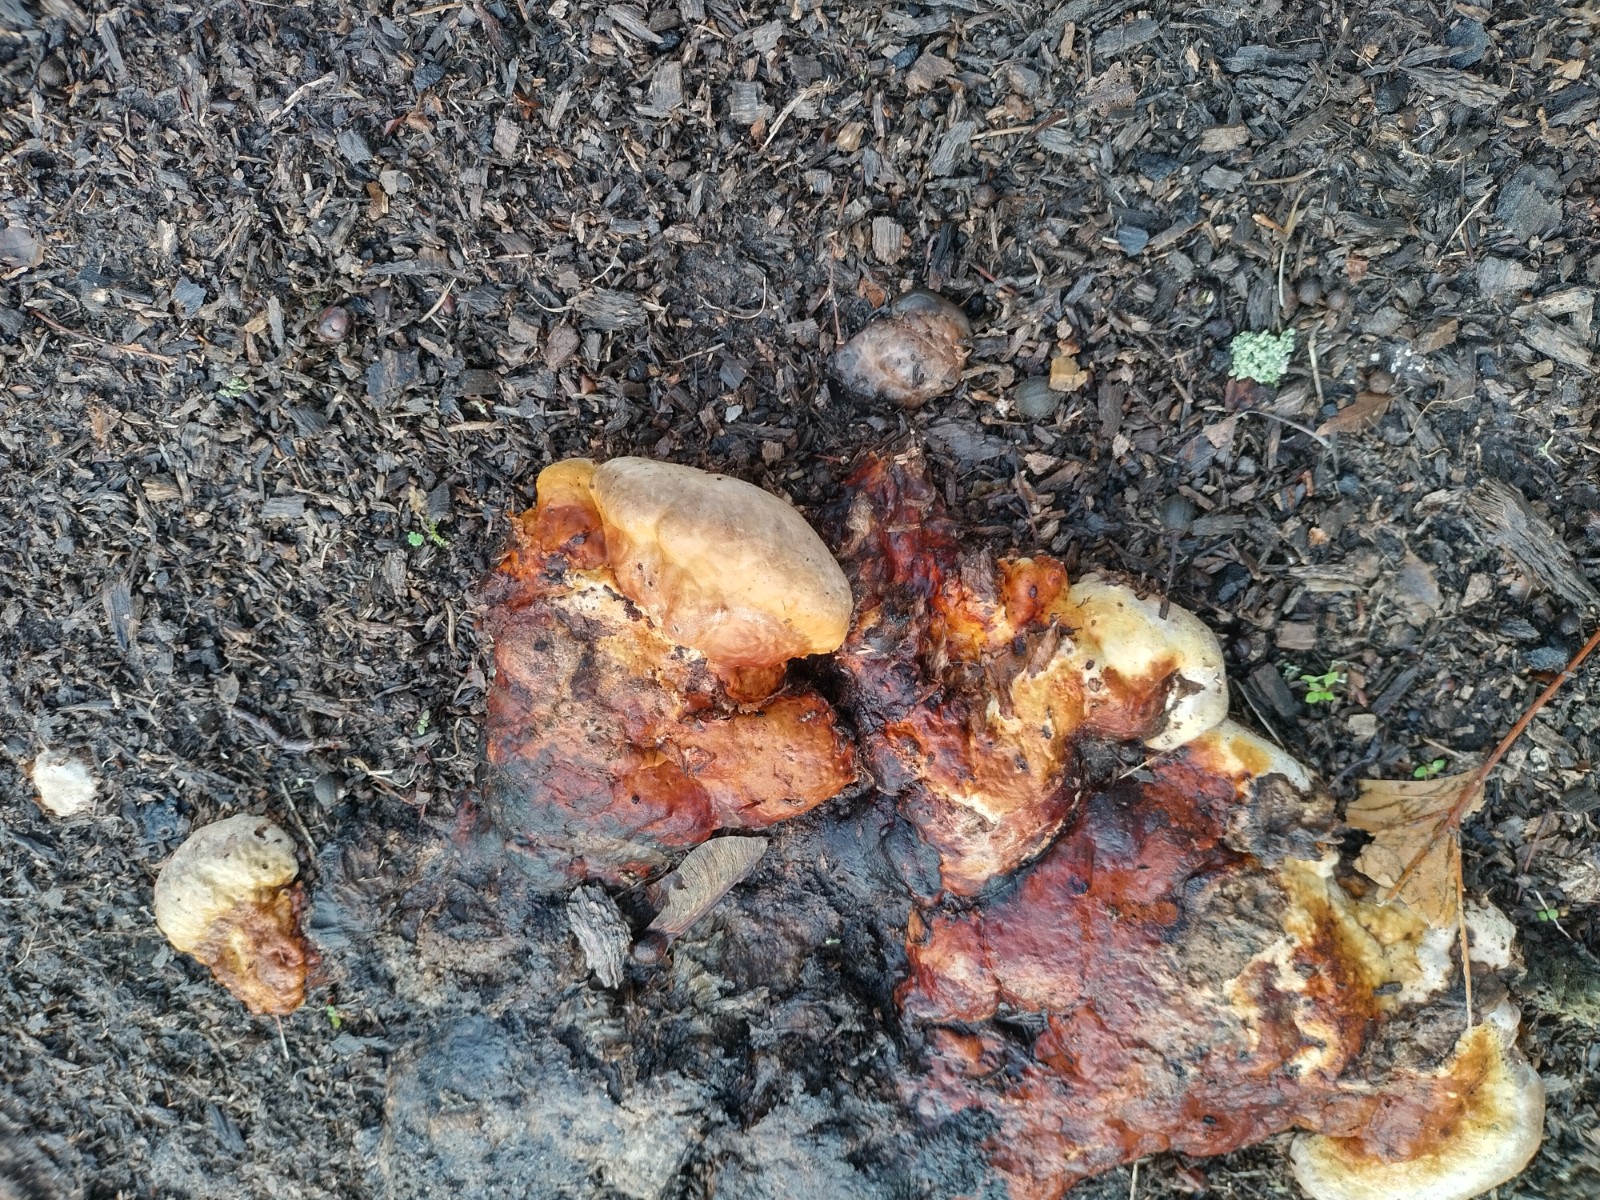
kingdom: Fungi
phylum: Basidiomycota
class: Agaricomycetes
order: Polyporales
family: Fomitopsidaceae
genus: Fomitopsis
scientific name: Fomitopsis pinicola
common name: randbæltet hovporesvamp
